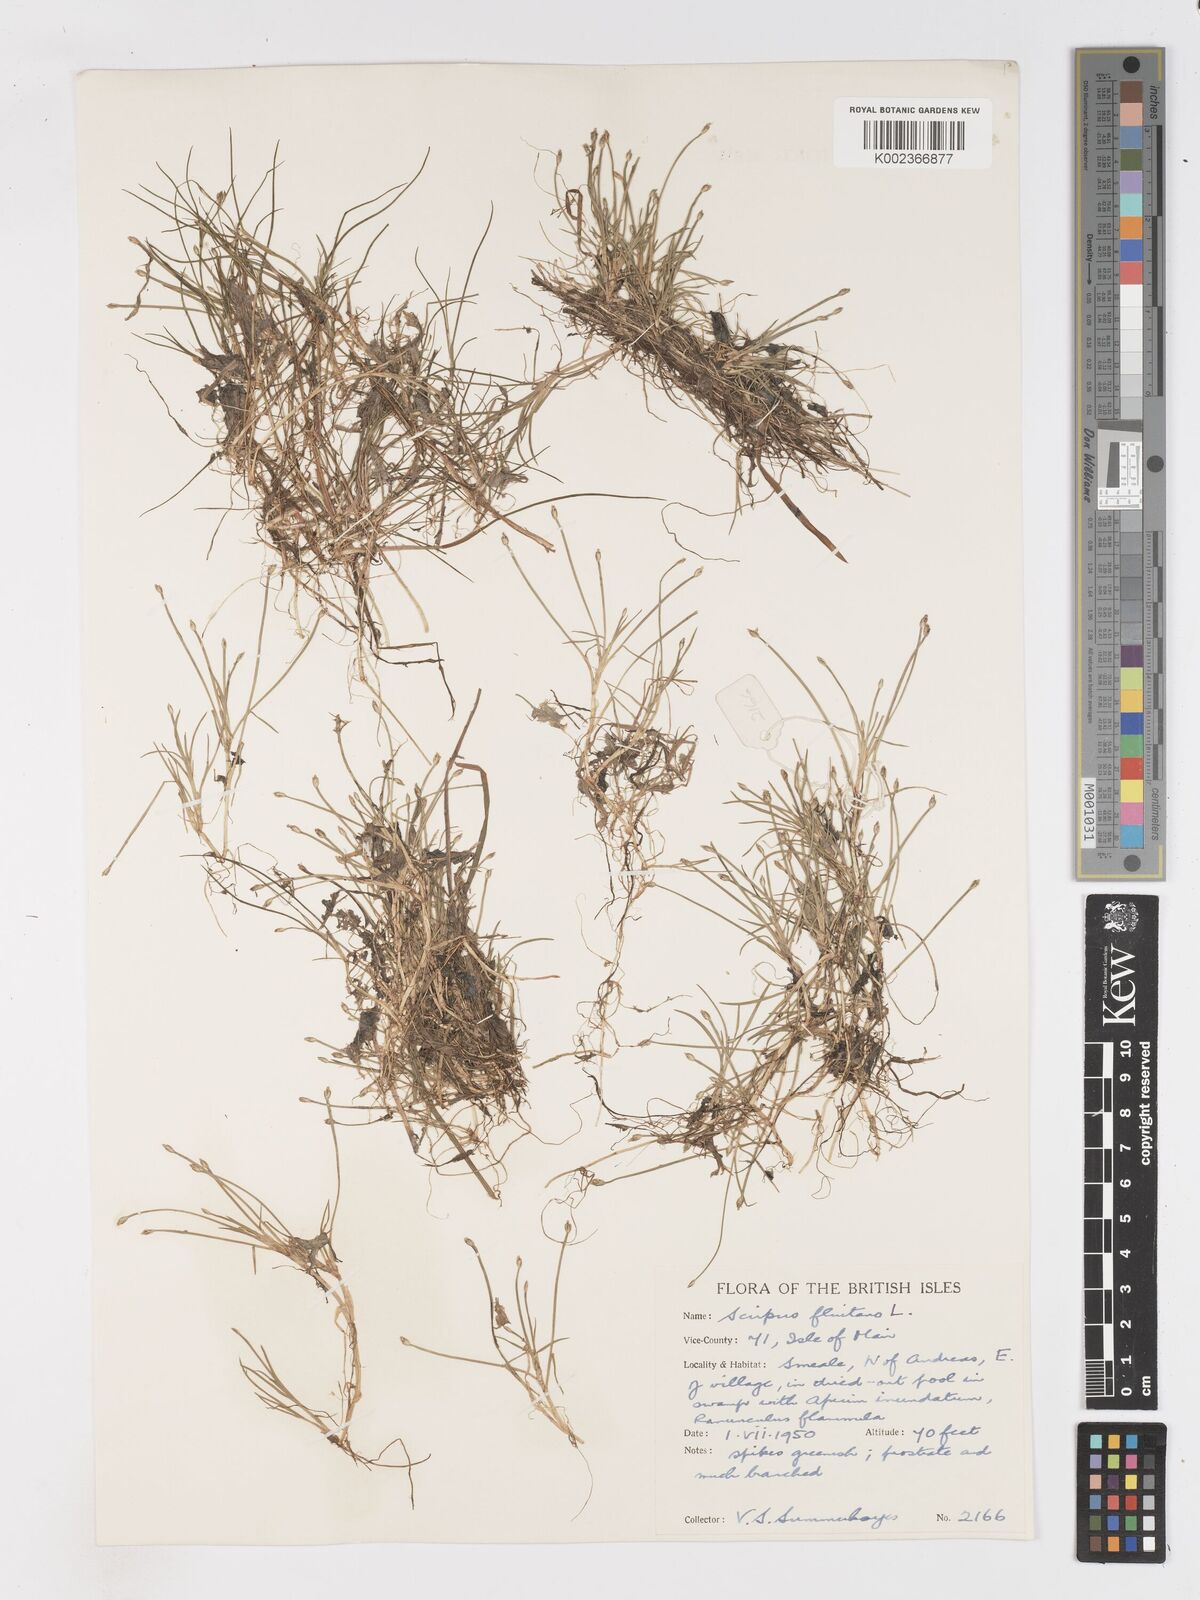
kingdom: Plantae
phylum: Tracheophyta
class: Liliopsida
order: Poales
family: Cyperaceae
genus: Isolepis
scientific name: Isolepis fluitans
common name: Floating club-rush
